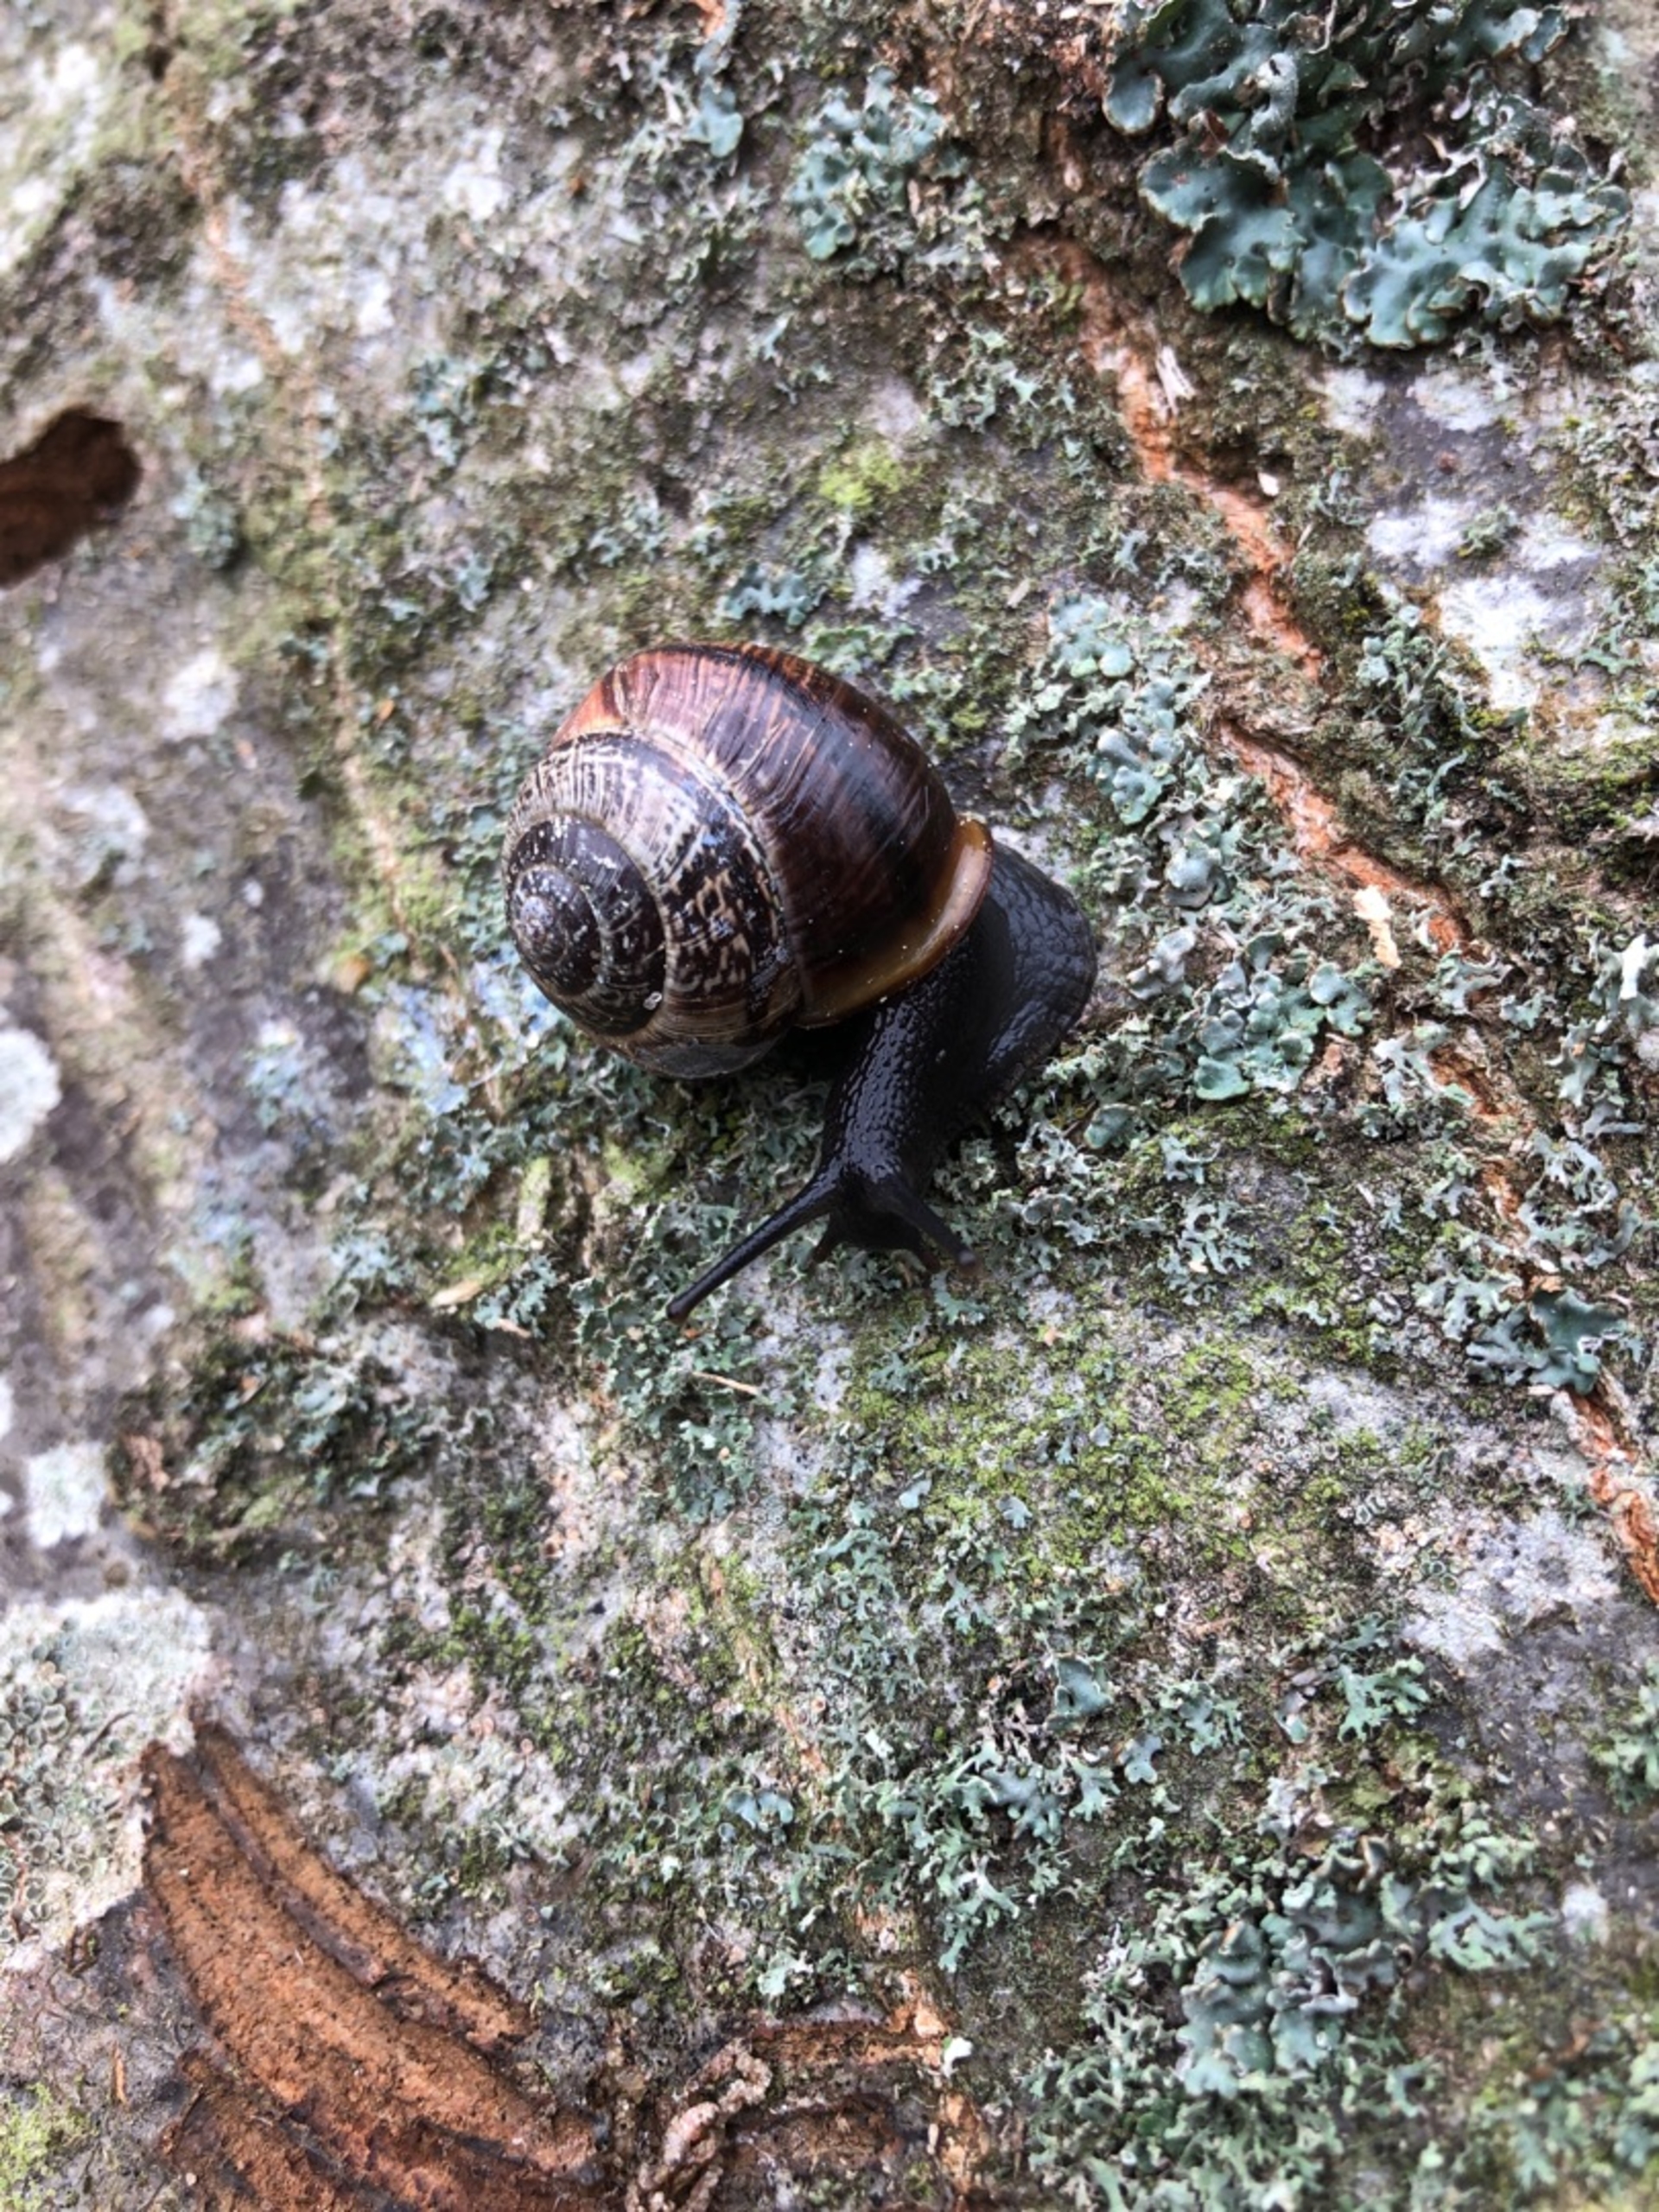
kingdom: Animalia
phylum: Mollusca
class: Gastropoda
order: Stylommatophora
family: Helicidae
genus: Arianta
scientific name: Arianta arbustorum
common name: Kratsnegl
